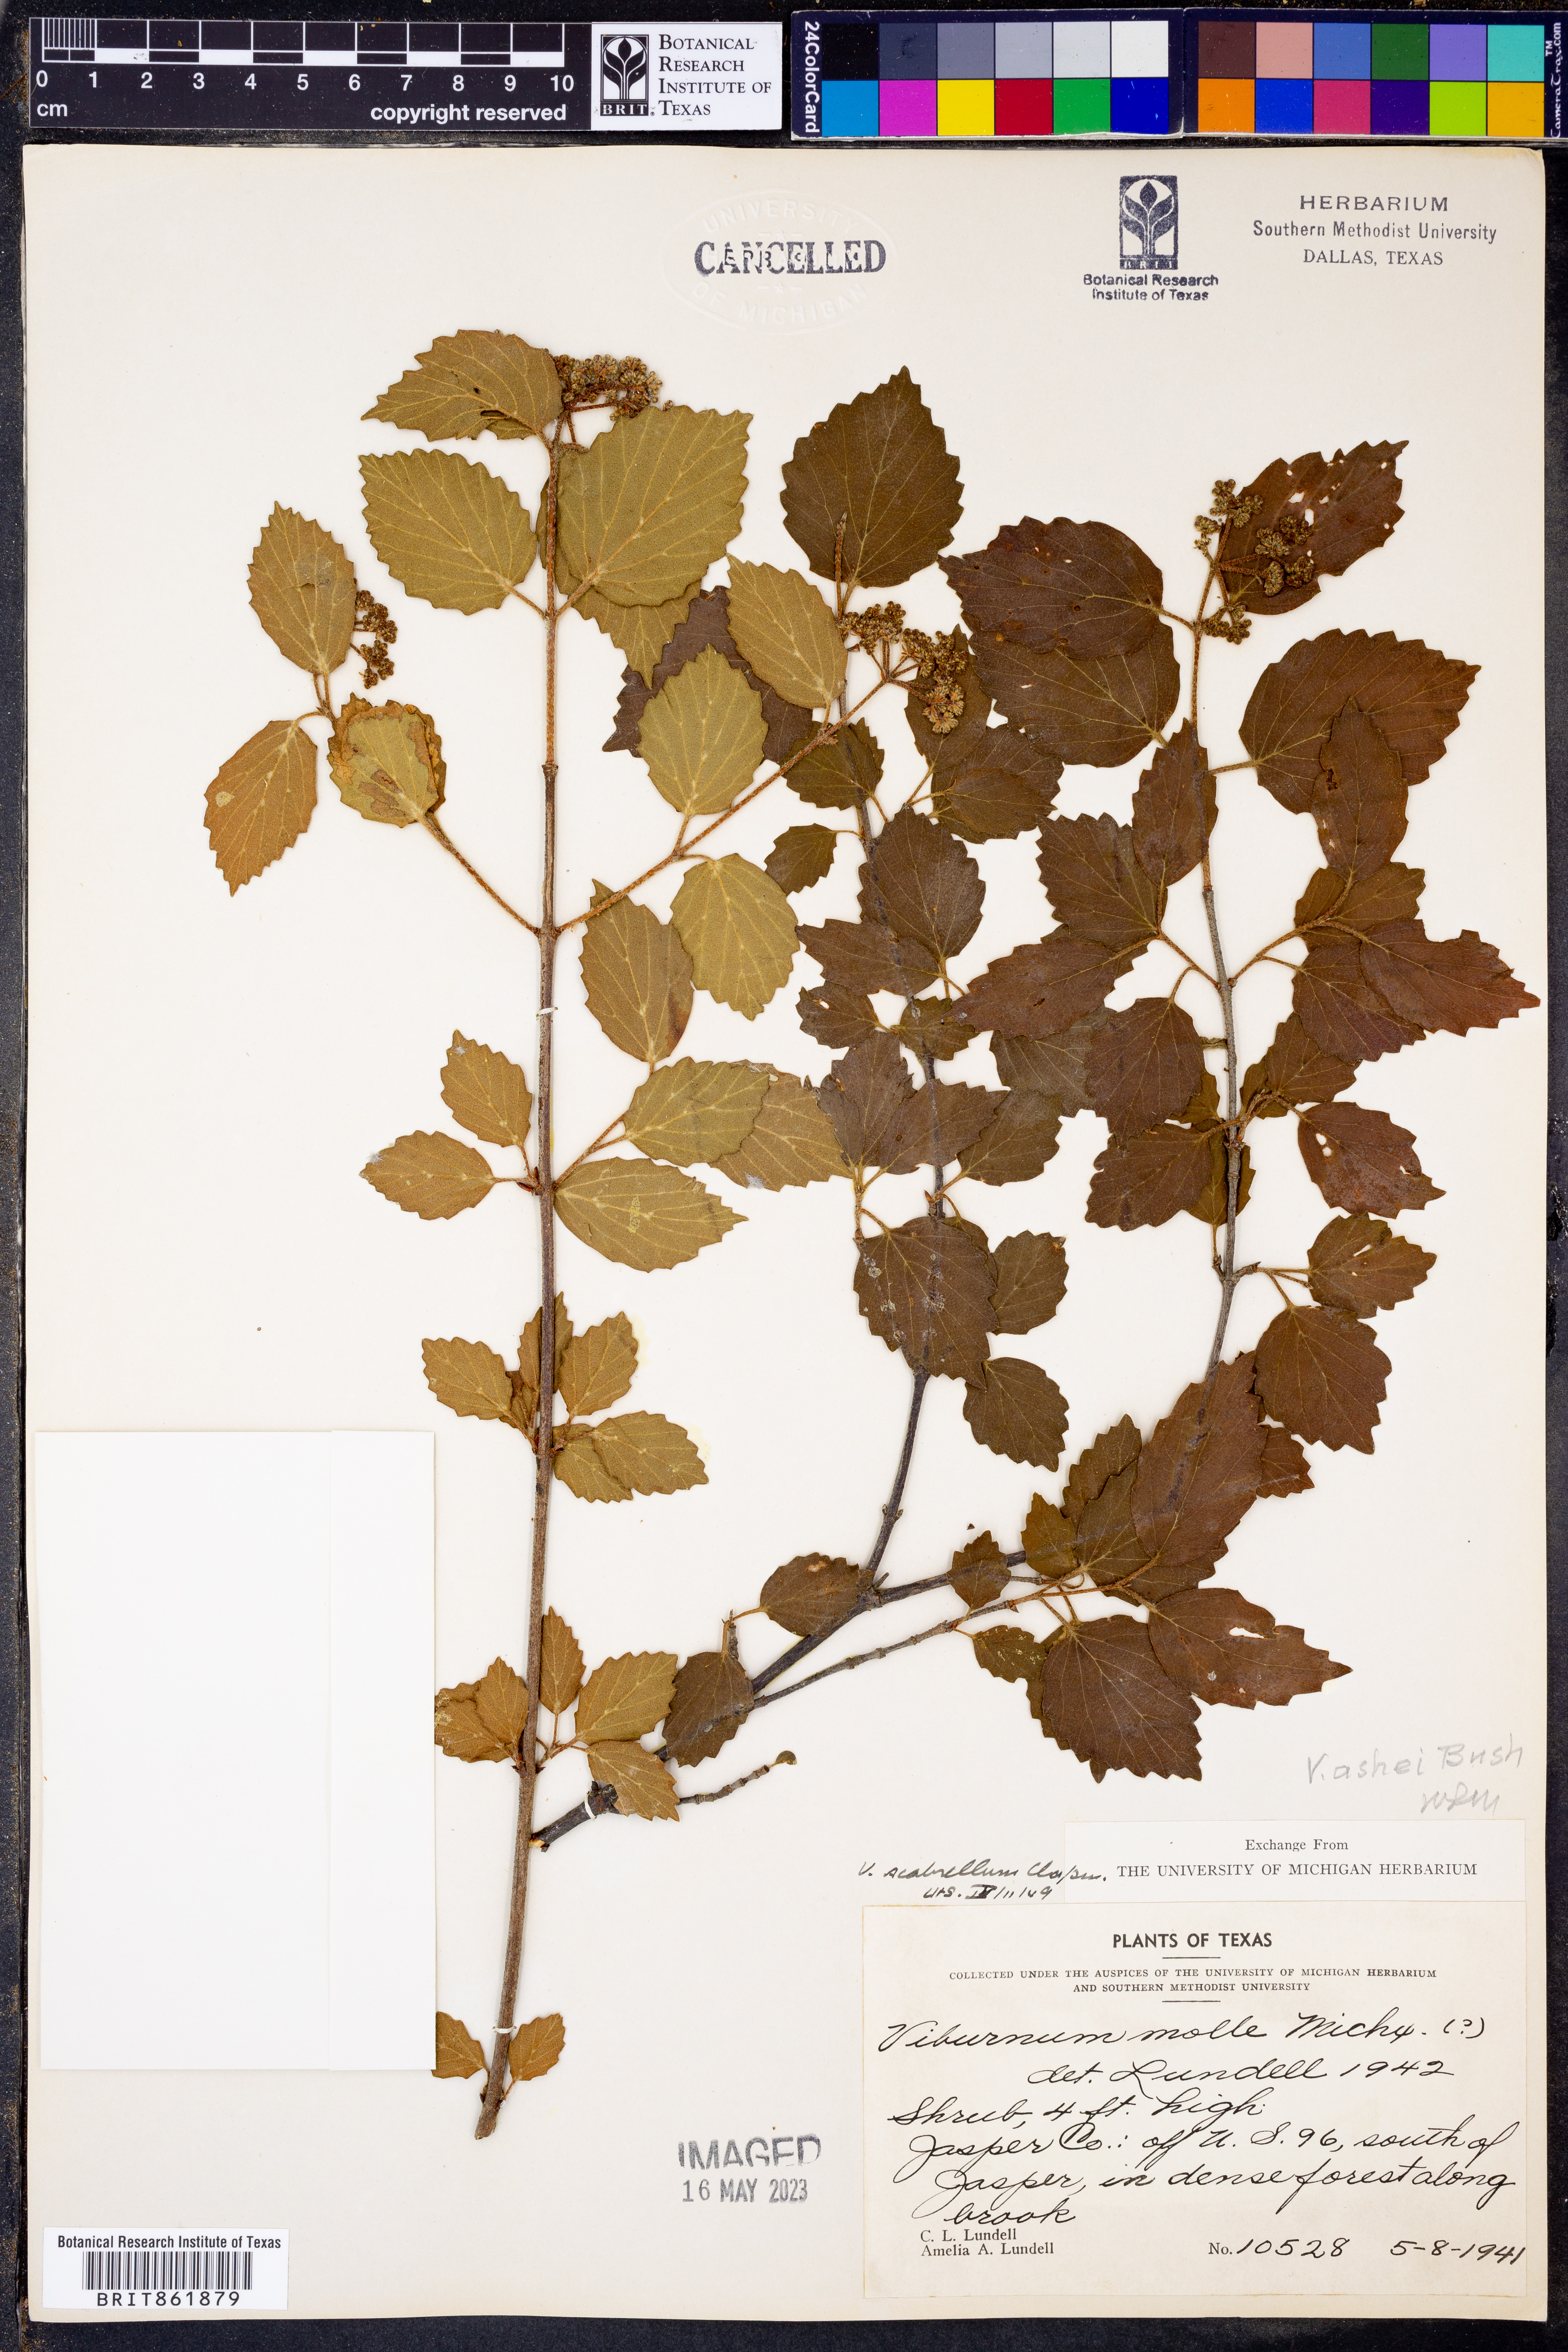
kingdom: Plantae
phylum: Tracheophyta
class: Magnoliopsida
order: Dipsacales
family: Viburnaceae
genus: Viburnum
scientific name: Viburnum recognitum
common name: Northern arrow-wood
